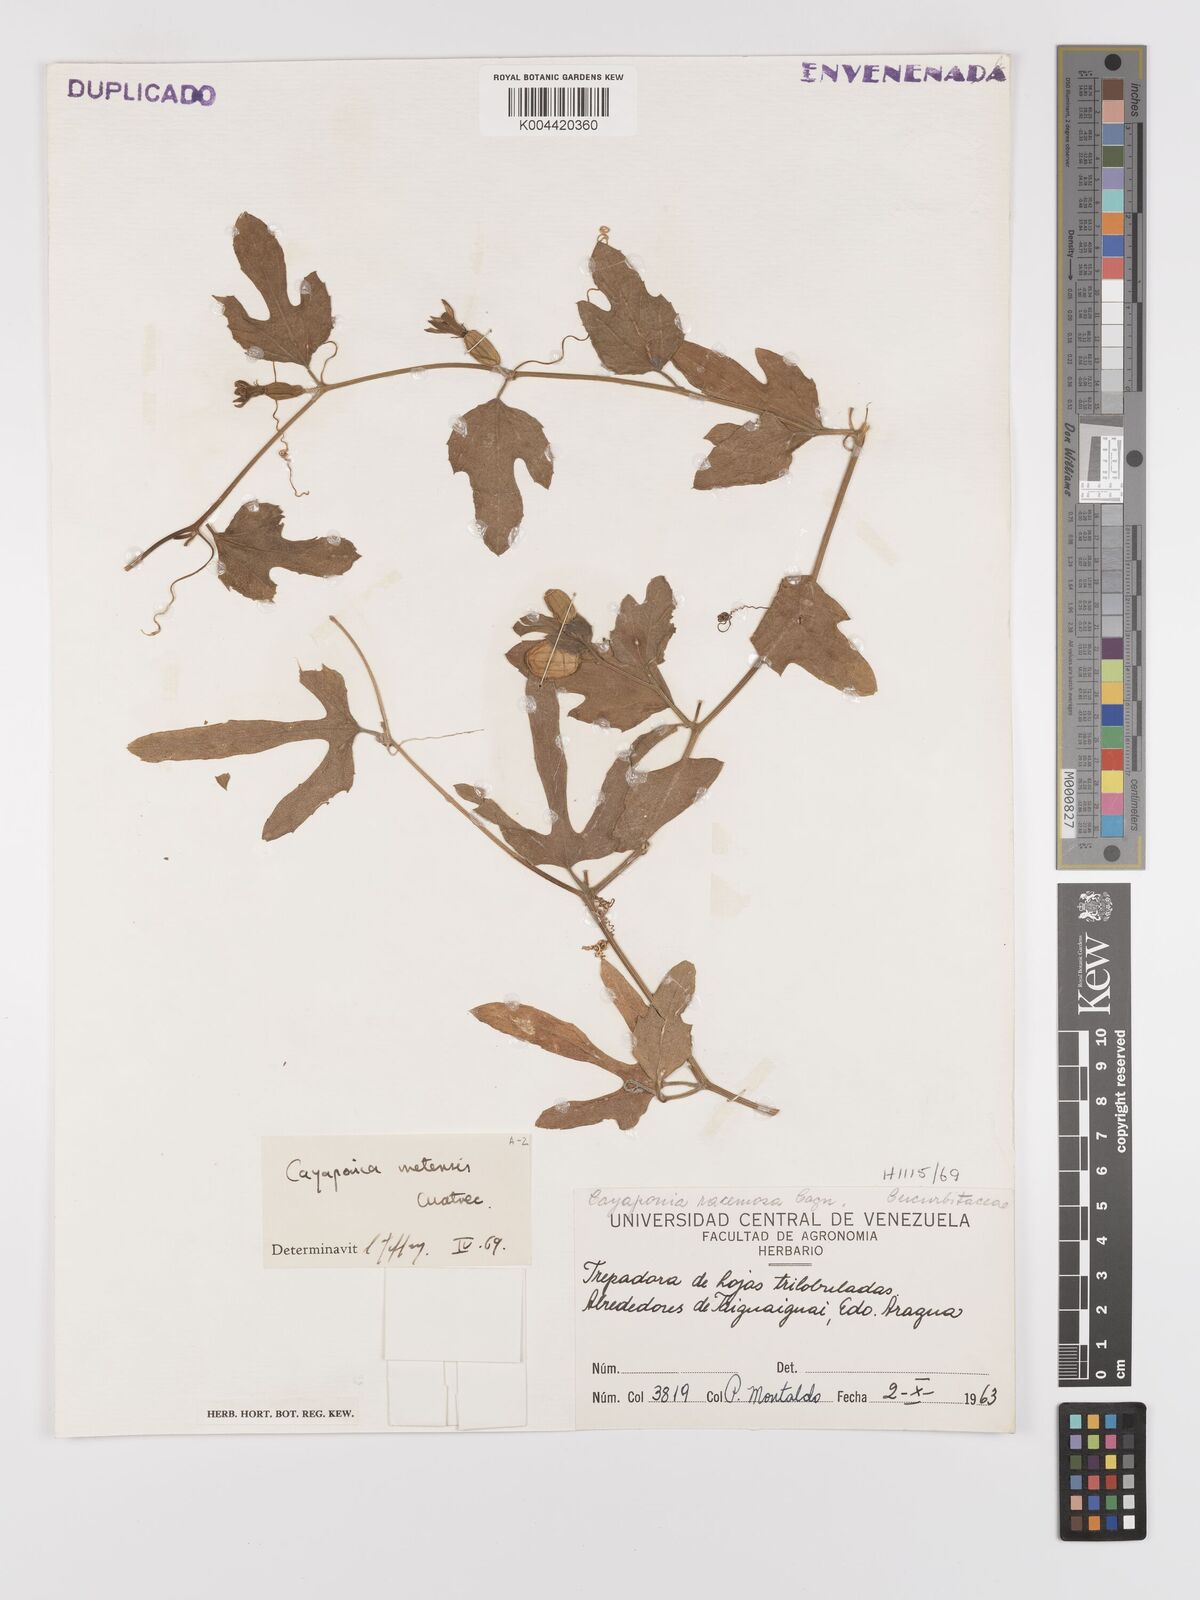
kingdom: Plantae
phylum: Tracheophyta
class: Magnoliopsida
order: Cucurbitales
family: Cucurbitaceae
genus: Cayaponia
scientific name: Cayaponia podantha
